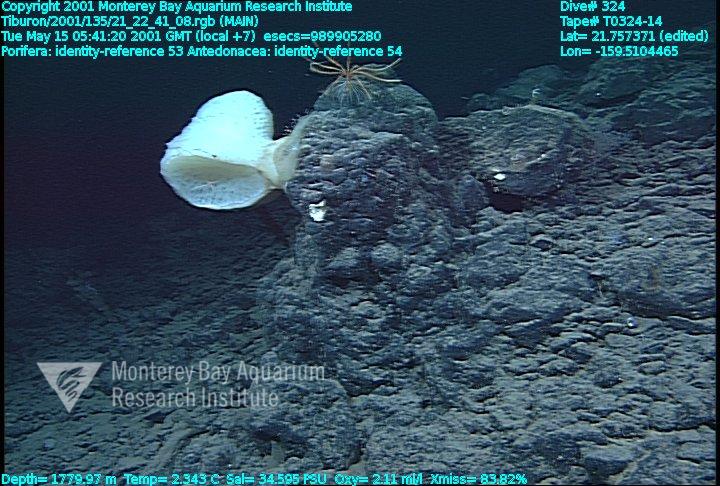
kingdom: Animalia
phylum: Porifera
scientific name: Porifera
